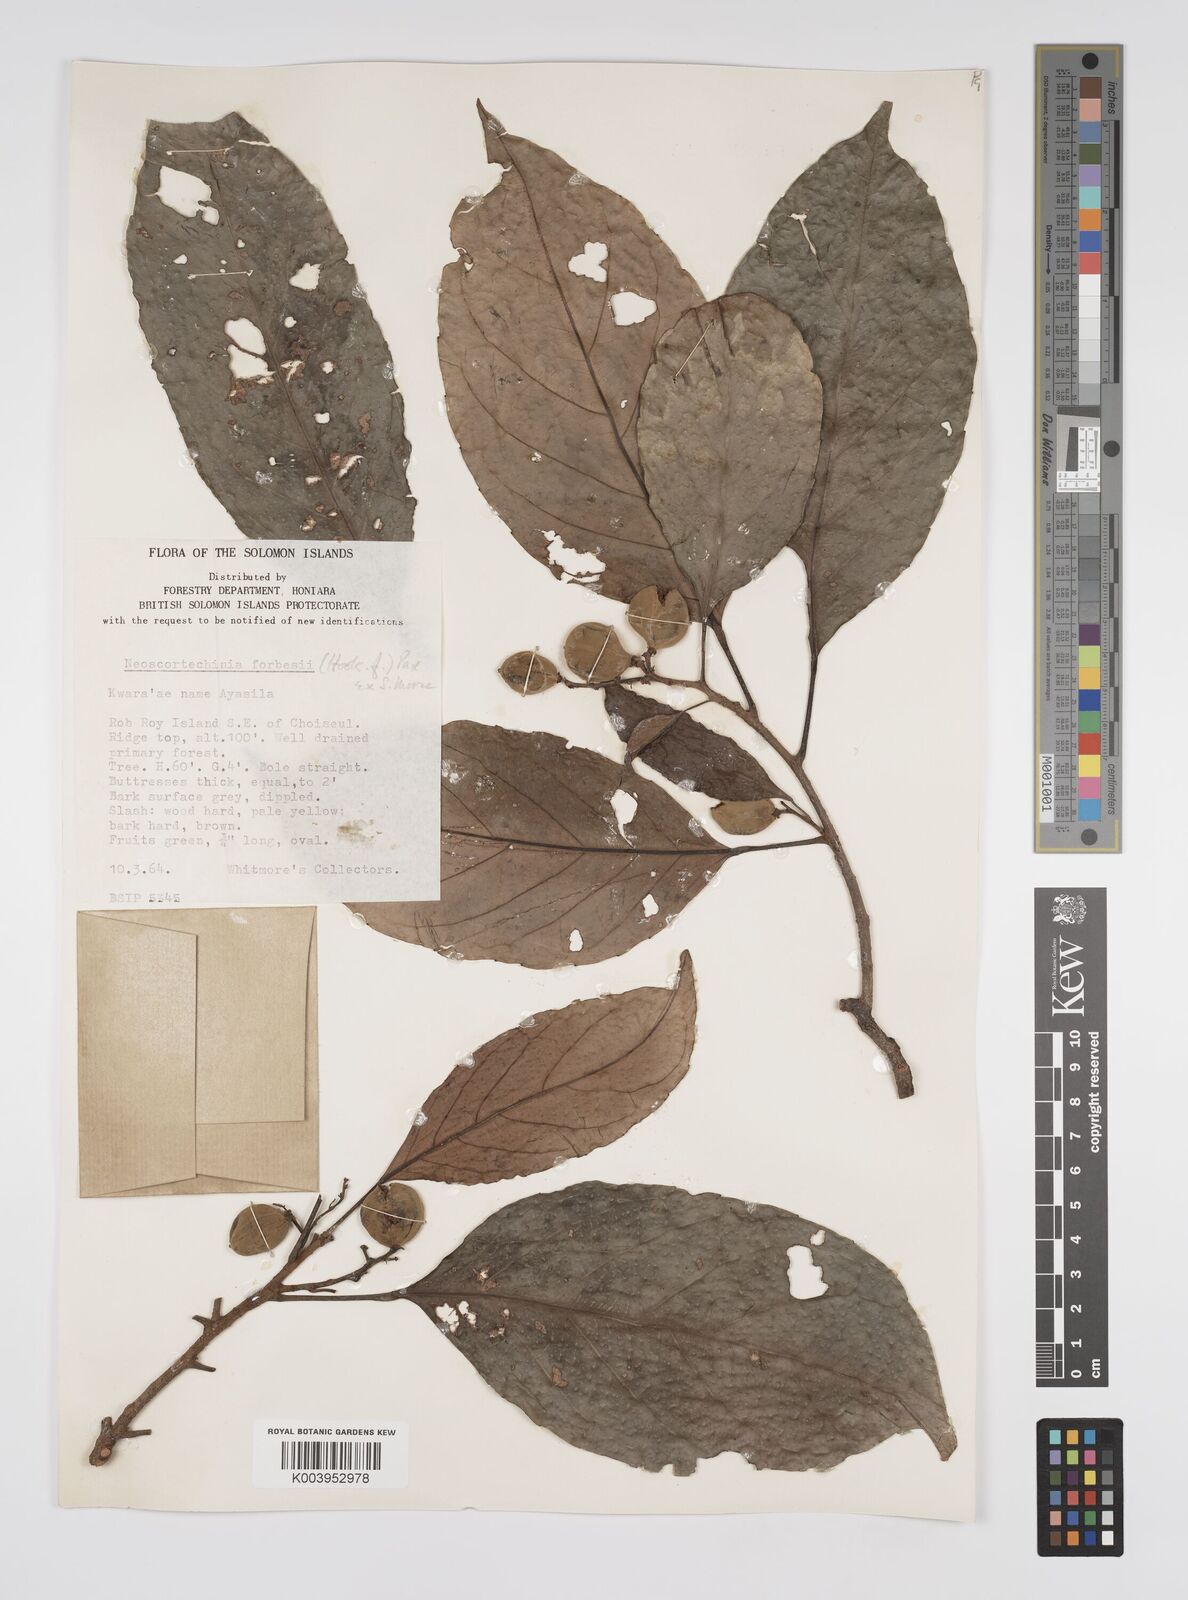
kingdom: Plantae
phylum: Tracheophyta
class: Magnoliopsida
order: Malpighiales
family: Euphorbiaceae
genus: Neoscortechinia
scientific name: Neoscortechinia forbesii
